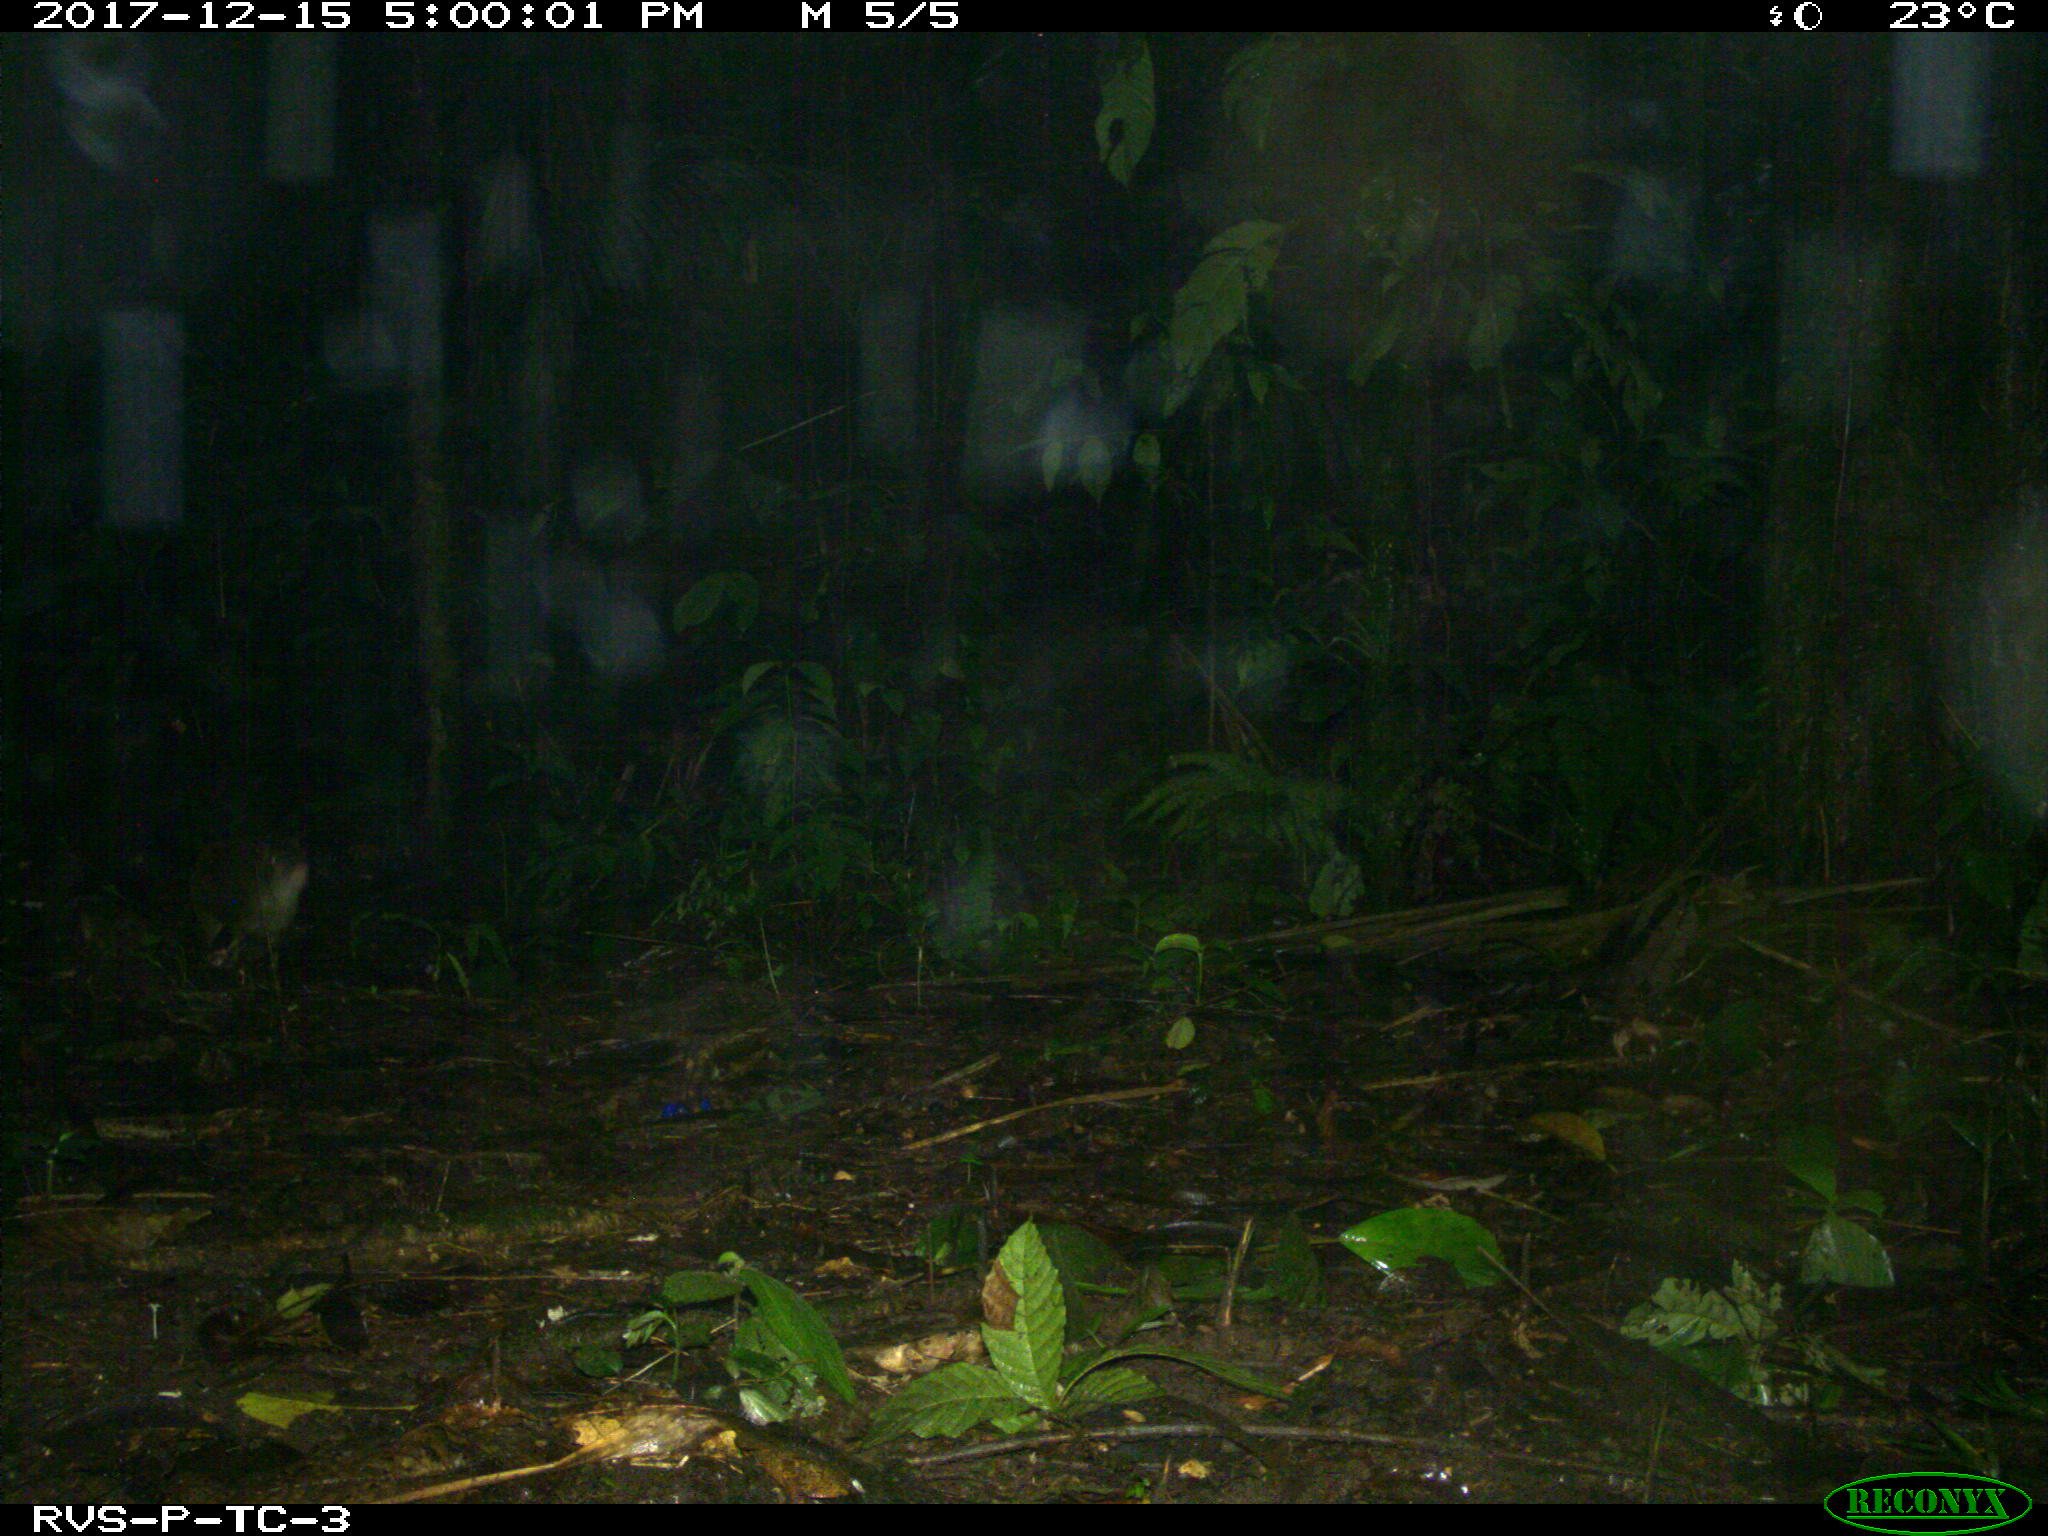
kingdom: Animalia
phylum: Chordata
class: Mammalia
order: Rodentia
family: Dasyproctidae
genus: Dasyprocta
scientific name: Dasyprocta punctata
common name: Central american agouti
